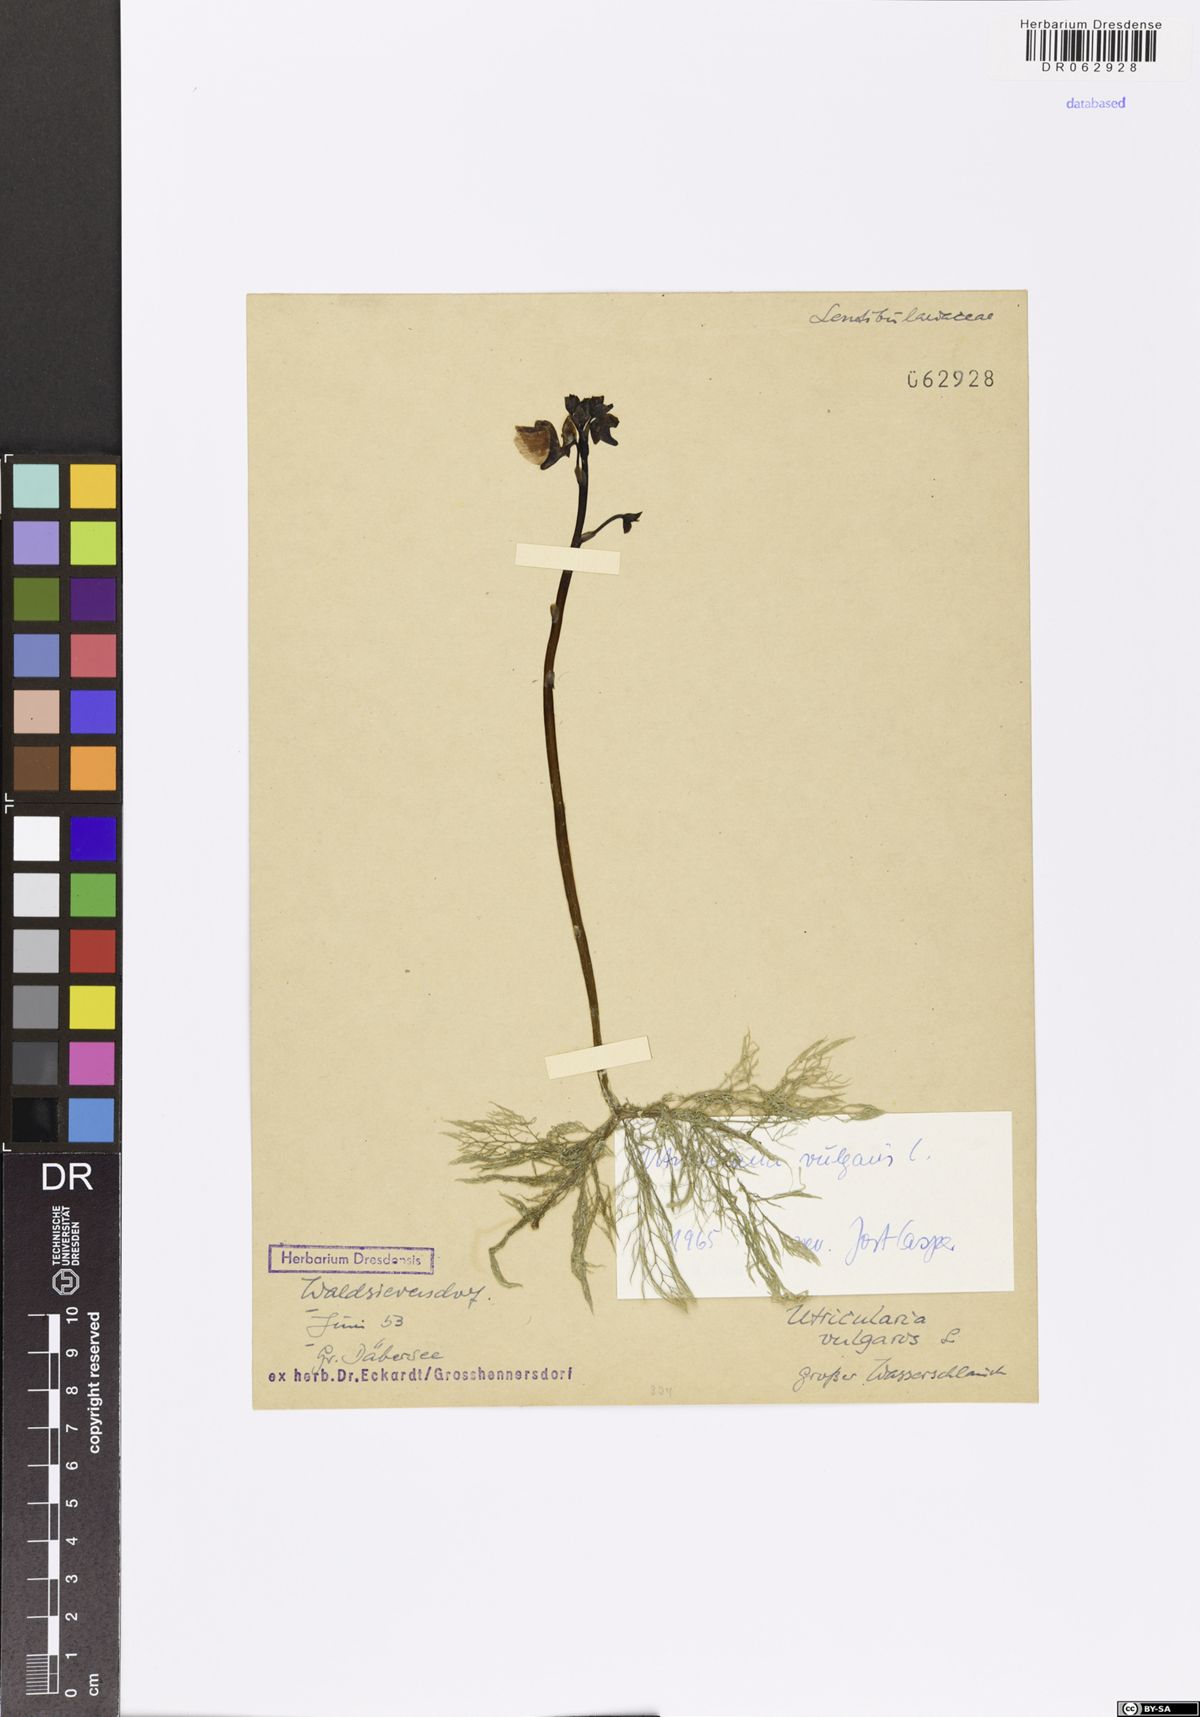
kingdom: Plantae
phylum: Tracheophyta
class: Magnoliopsida
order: Lamiales
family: Lentibulariaceae
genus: Utricularia
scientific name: Utricularia vulgaris
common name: Greater bladderwort
